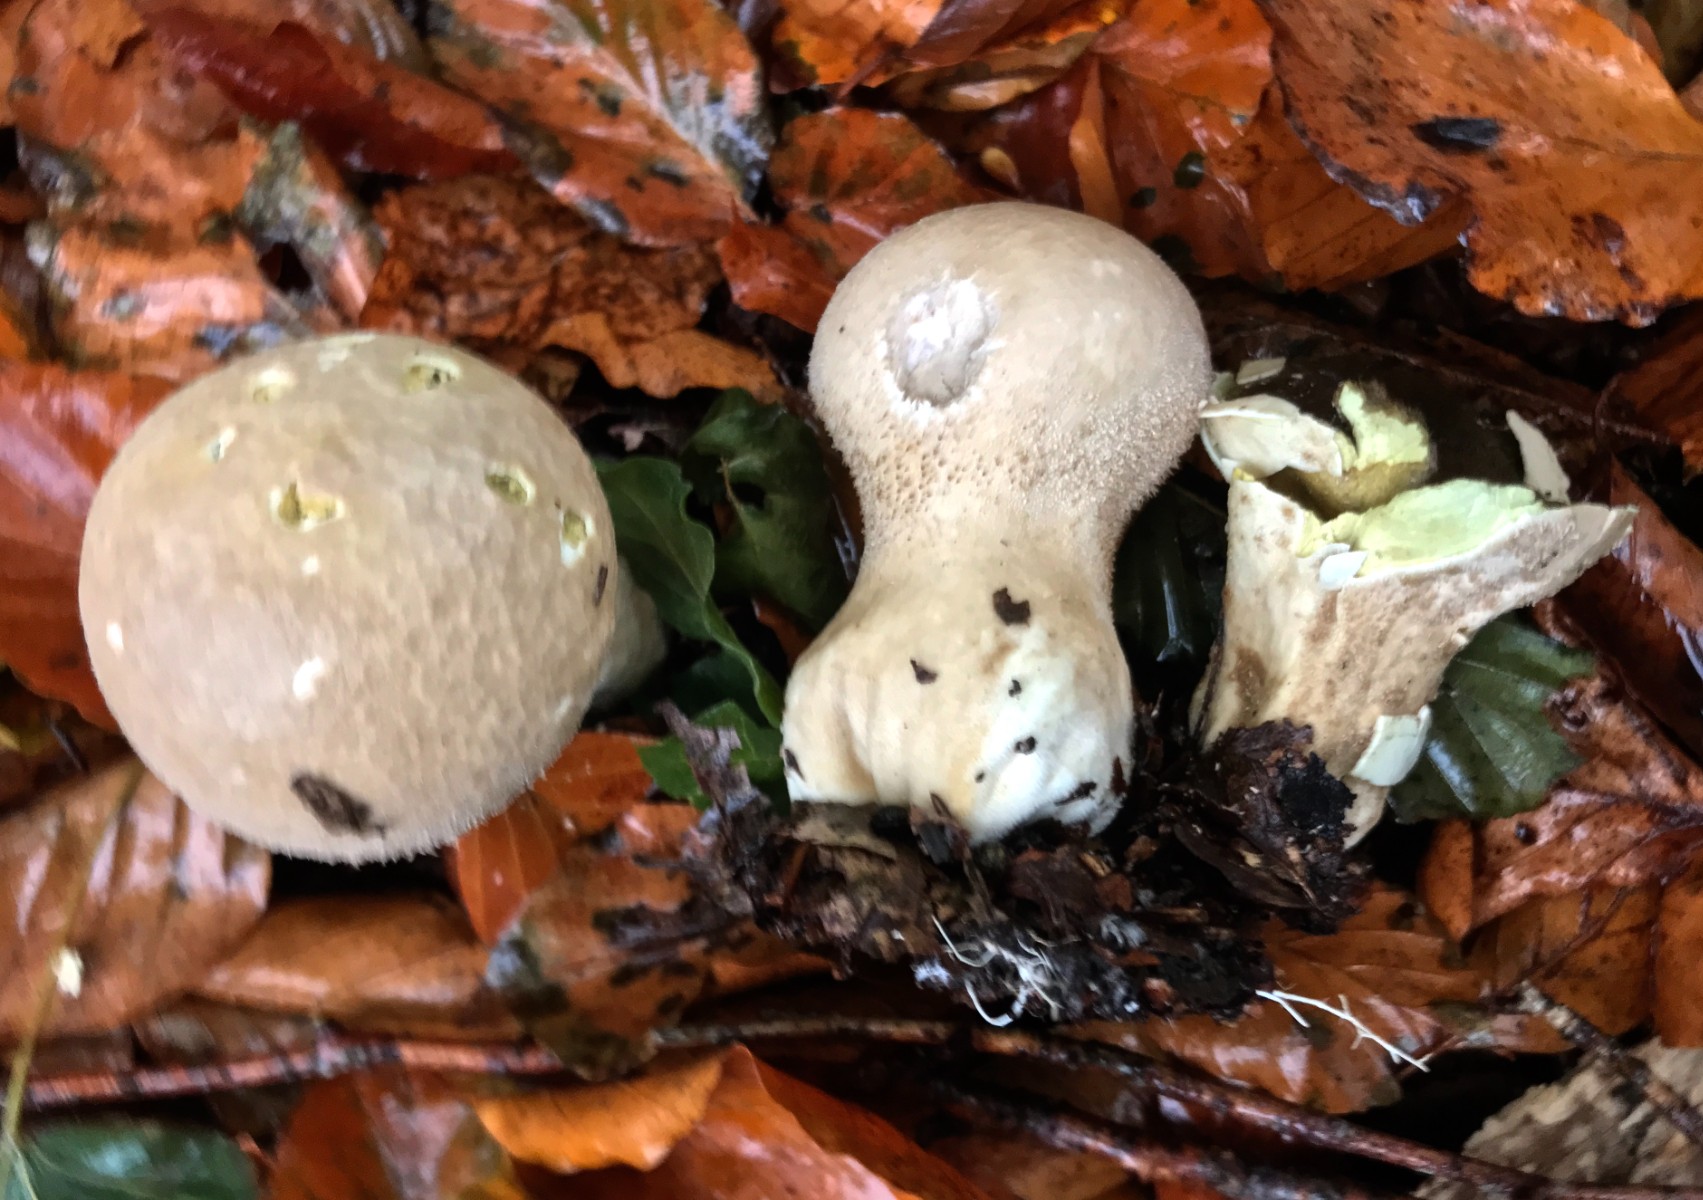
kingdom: Fungi
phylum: Basidiomycota
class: Agaricomycetes
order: Agaricales
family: Lycoperdaceae
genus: Lycoperdon
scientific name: Lycoperdon excipuliforme
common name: højstokket støvbold
